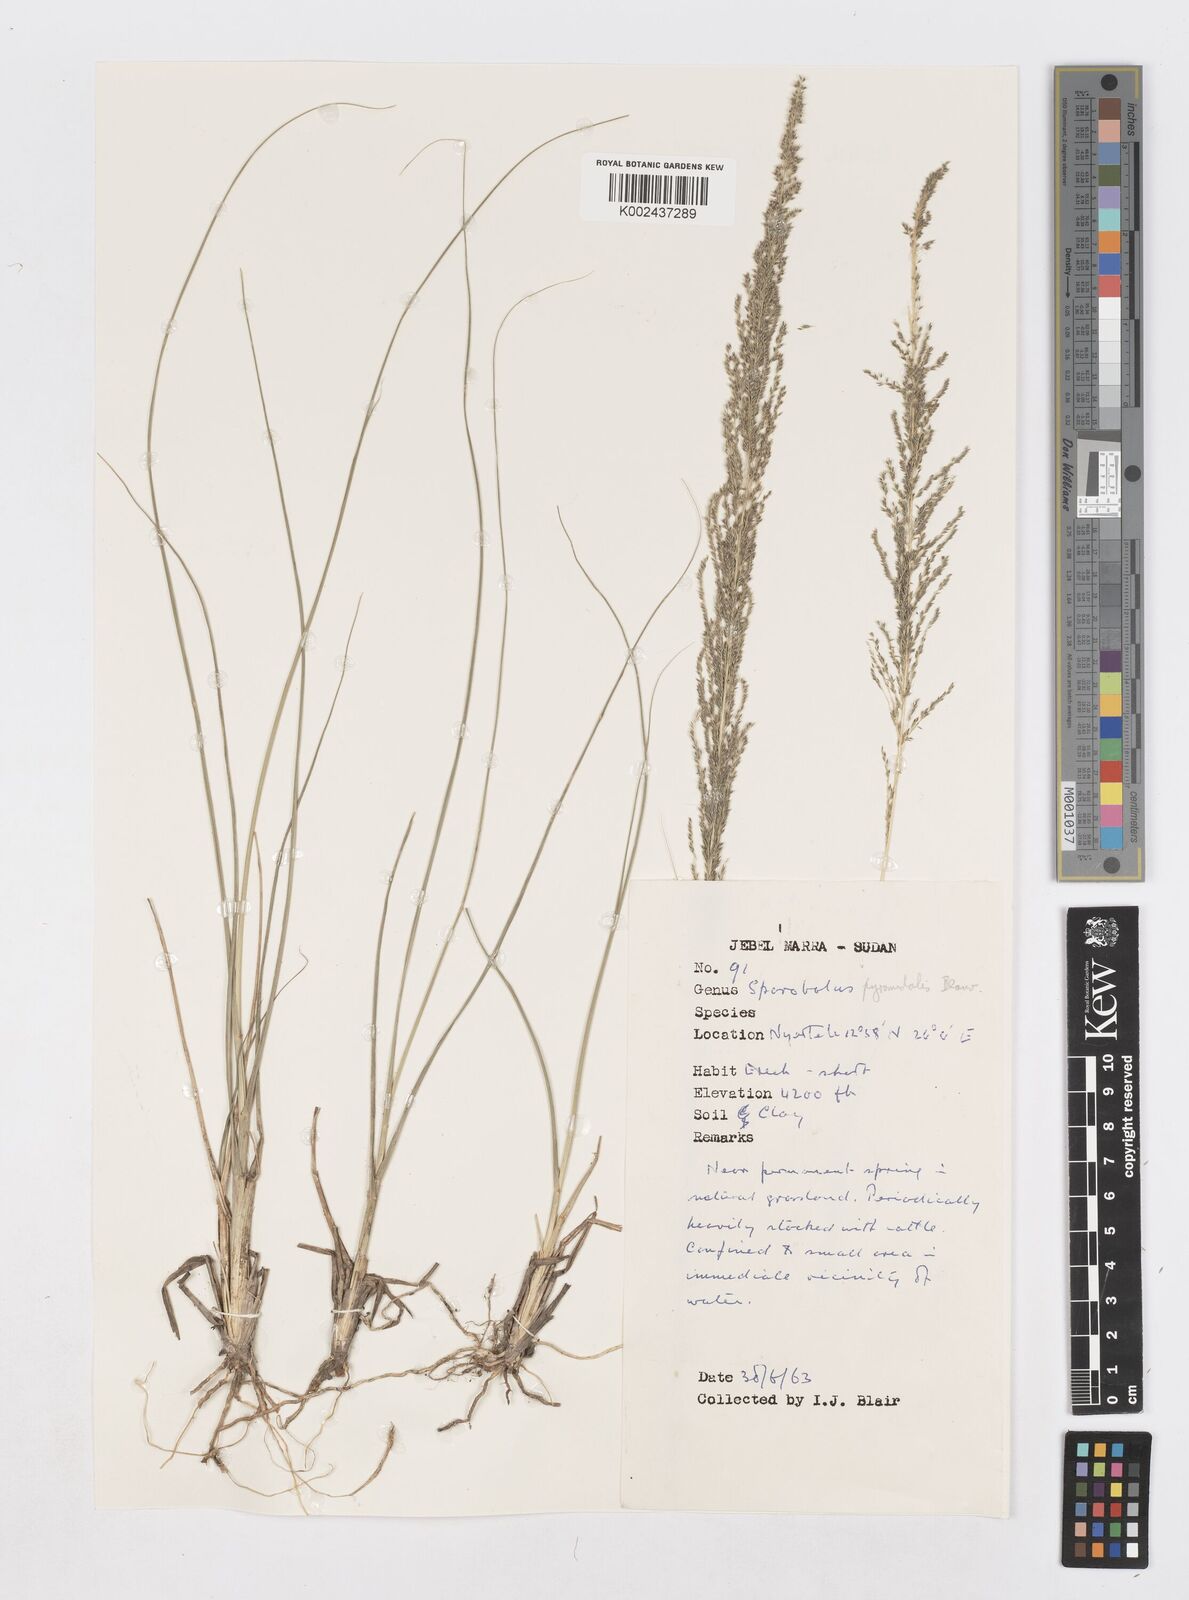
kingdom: Plantae
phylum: Tracheophyta
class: Liliopsida
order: Poales
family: Poaceae
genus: Sporobolus
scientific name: Sporobolus pyramidalis
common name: West indian dropseed
